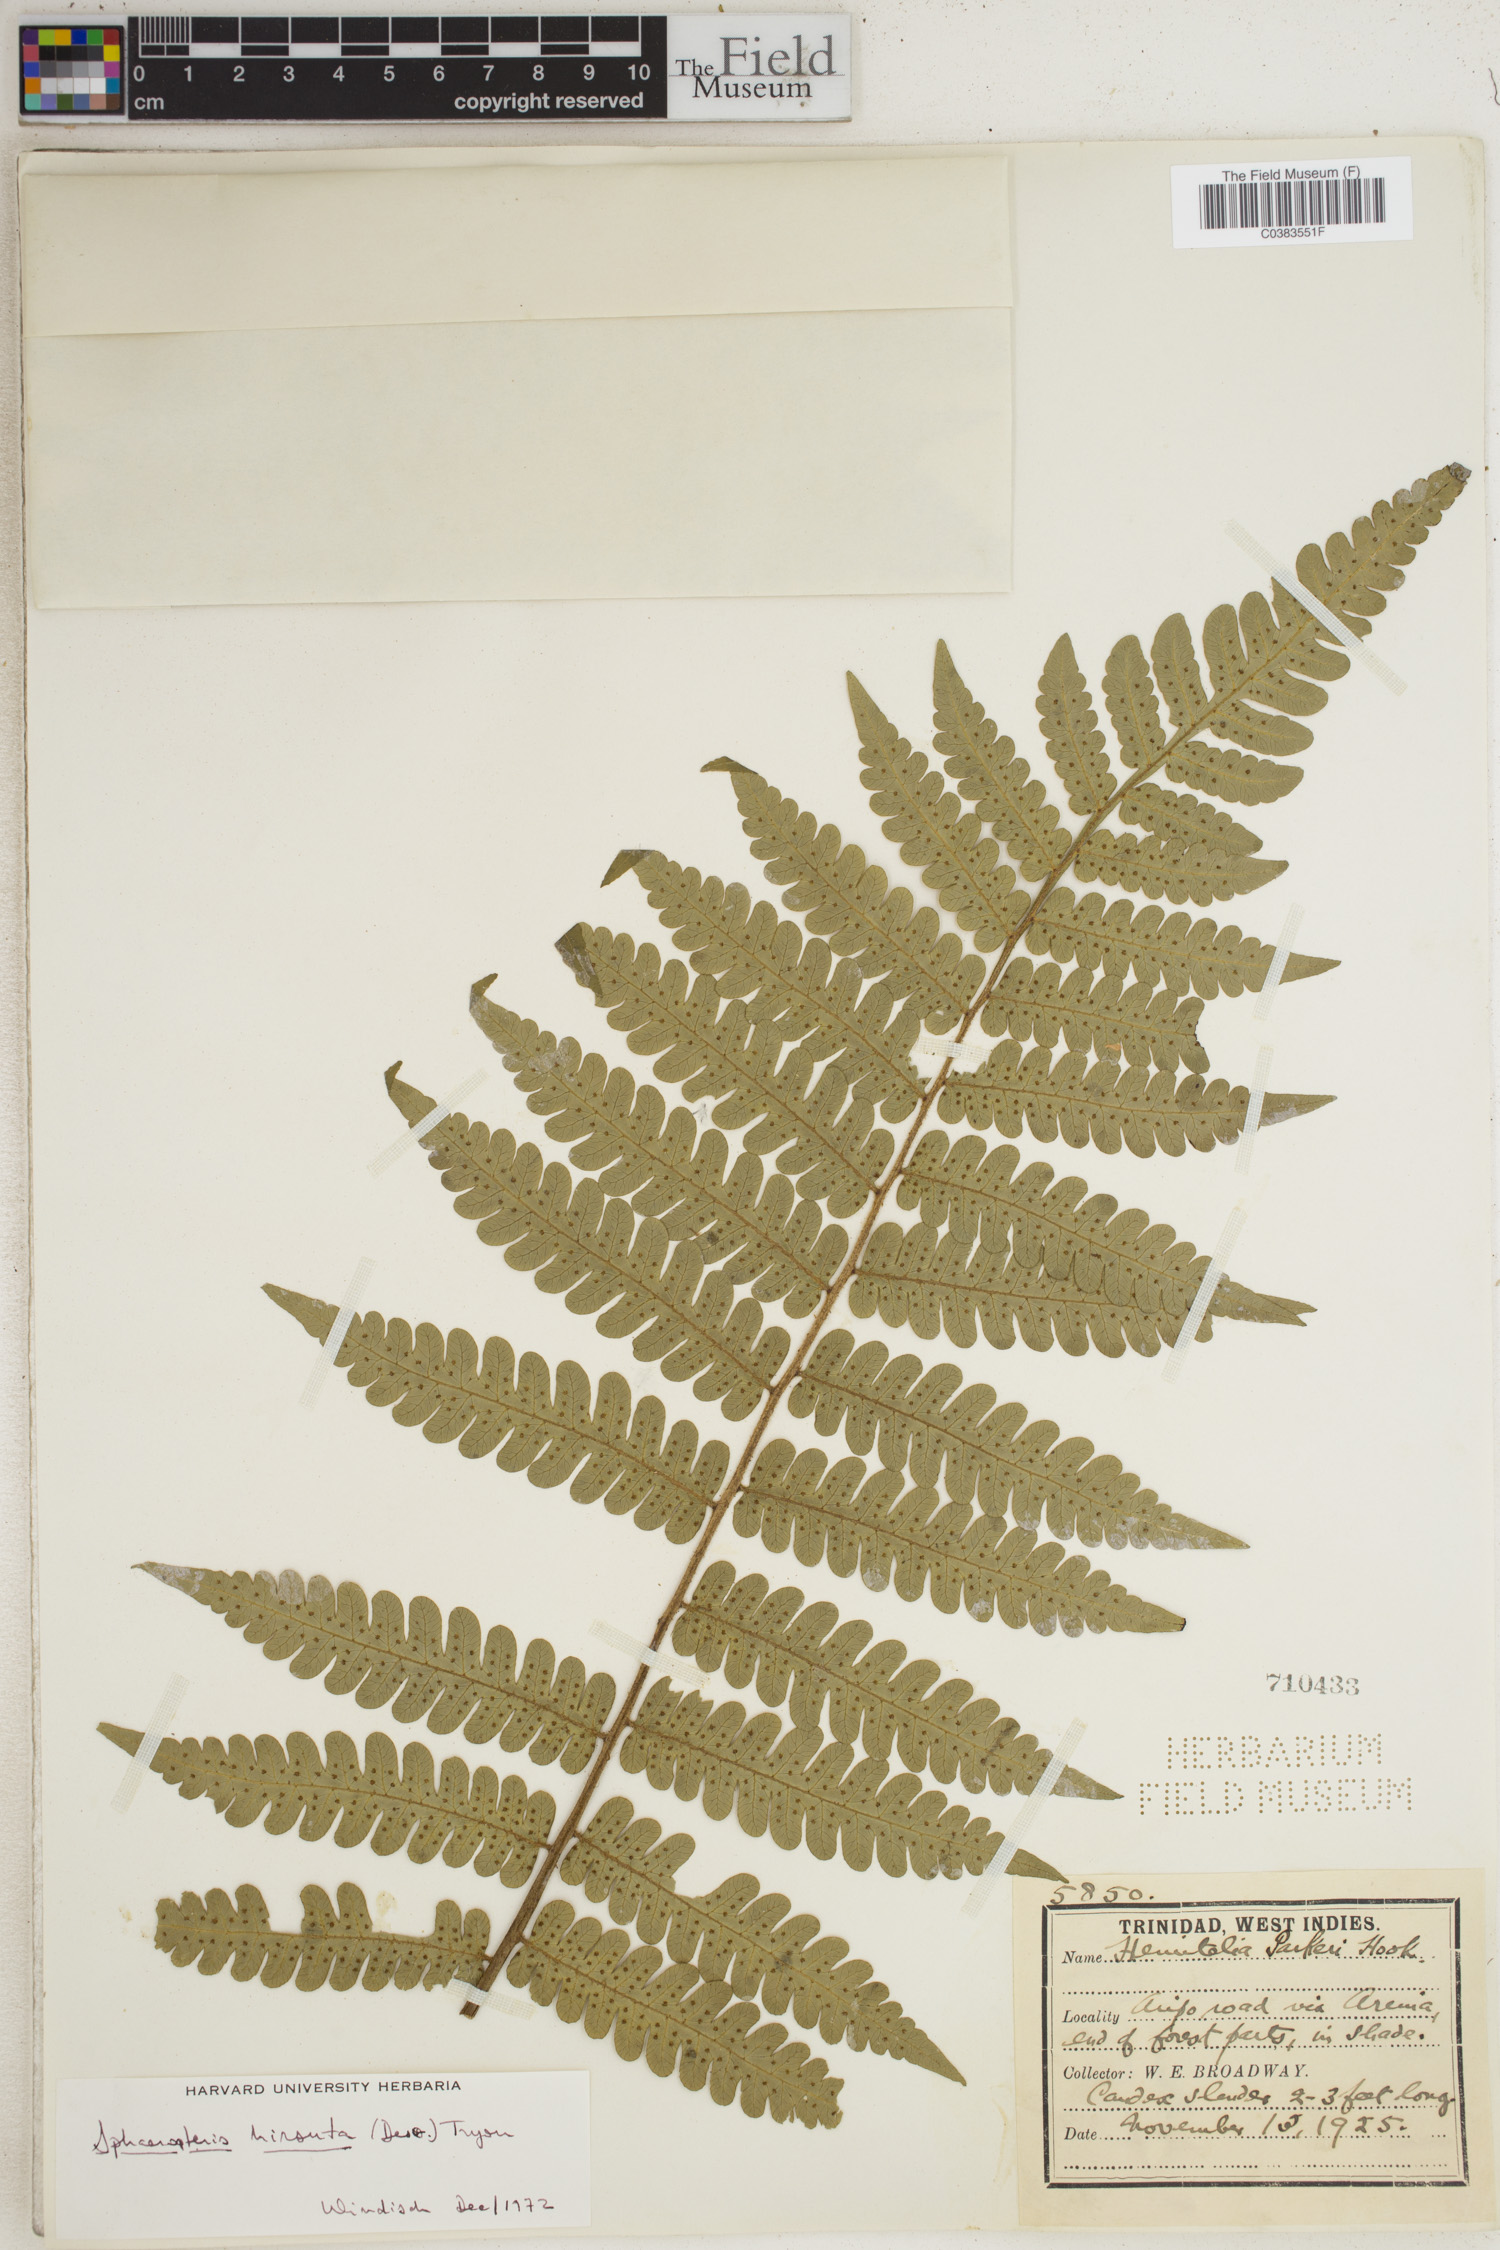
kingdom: Plantae
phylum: Tracheophyta
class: Polypodiopsida
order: Cyatheales
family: Cyatheaceae
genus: Cyathea
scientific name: Cyathea surinamensis
